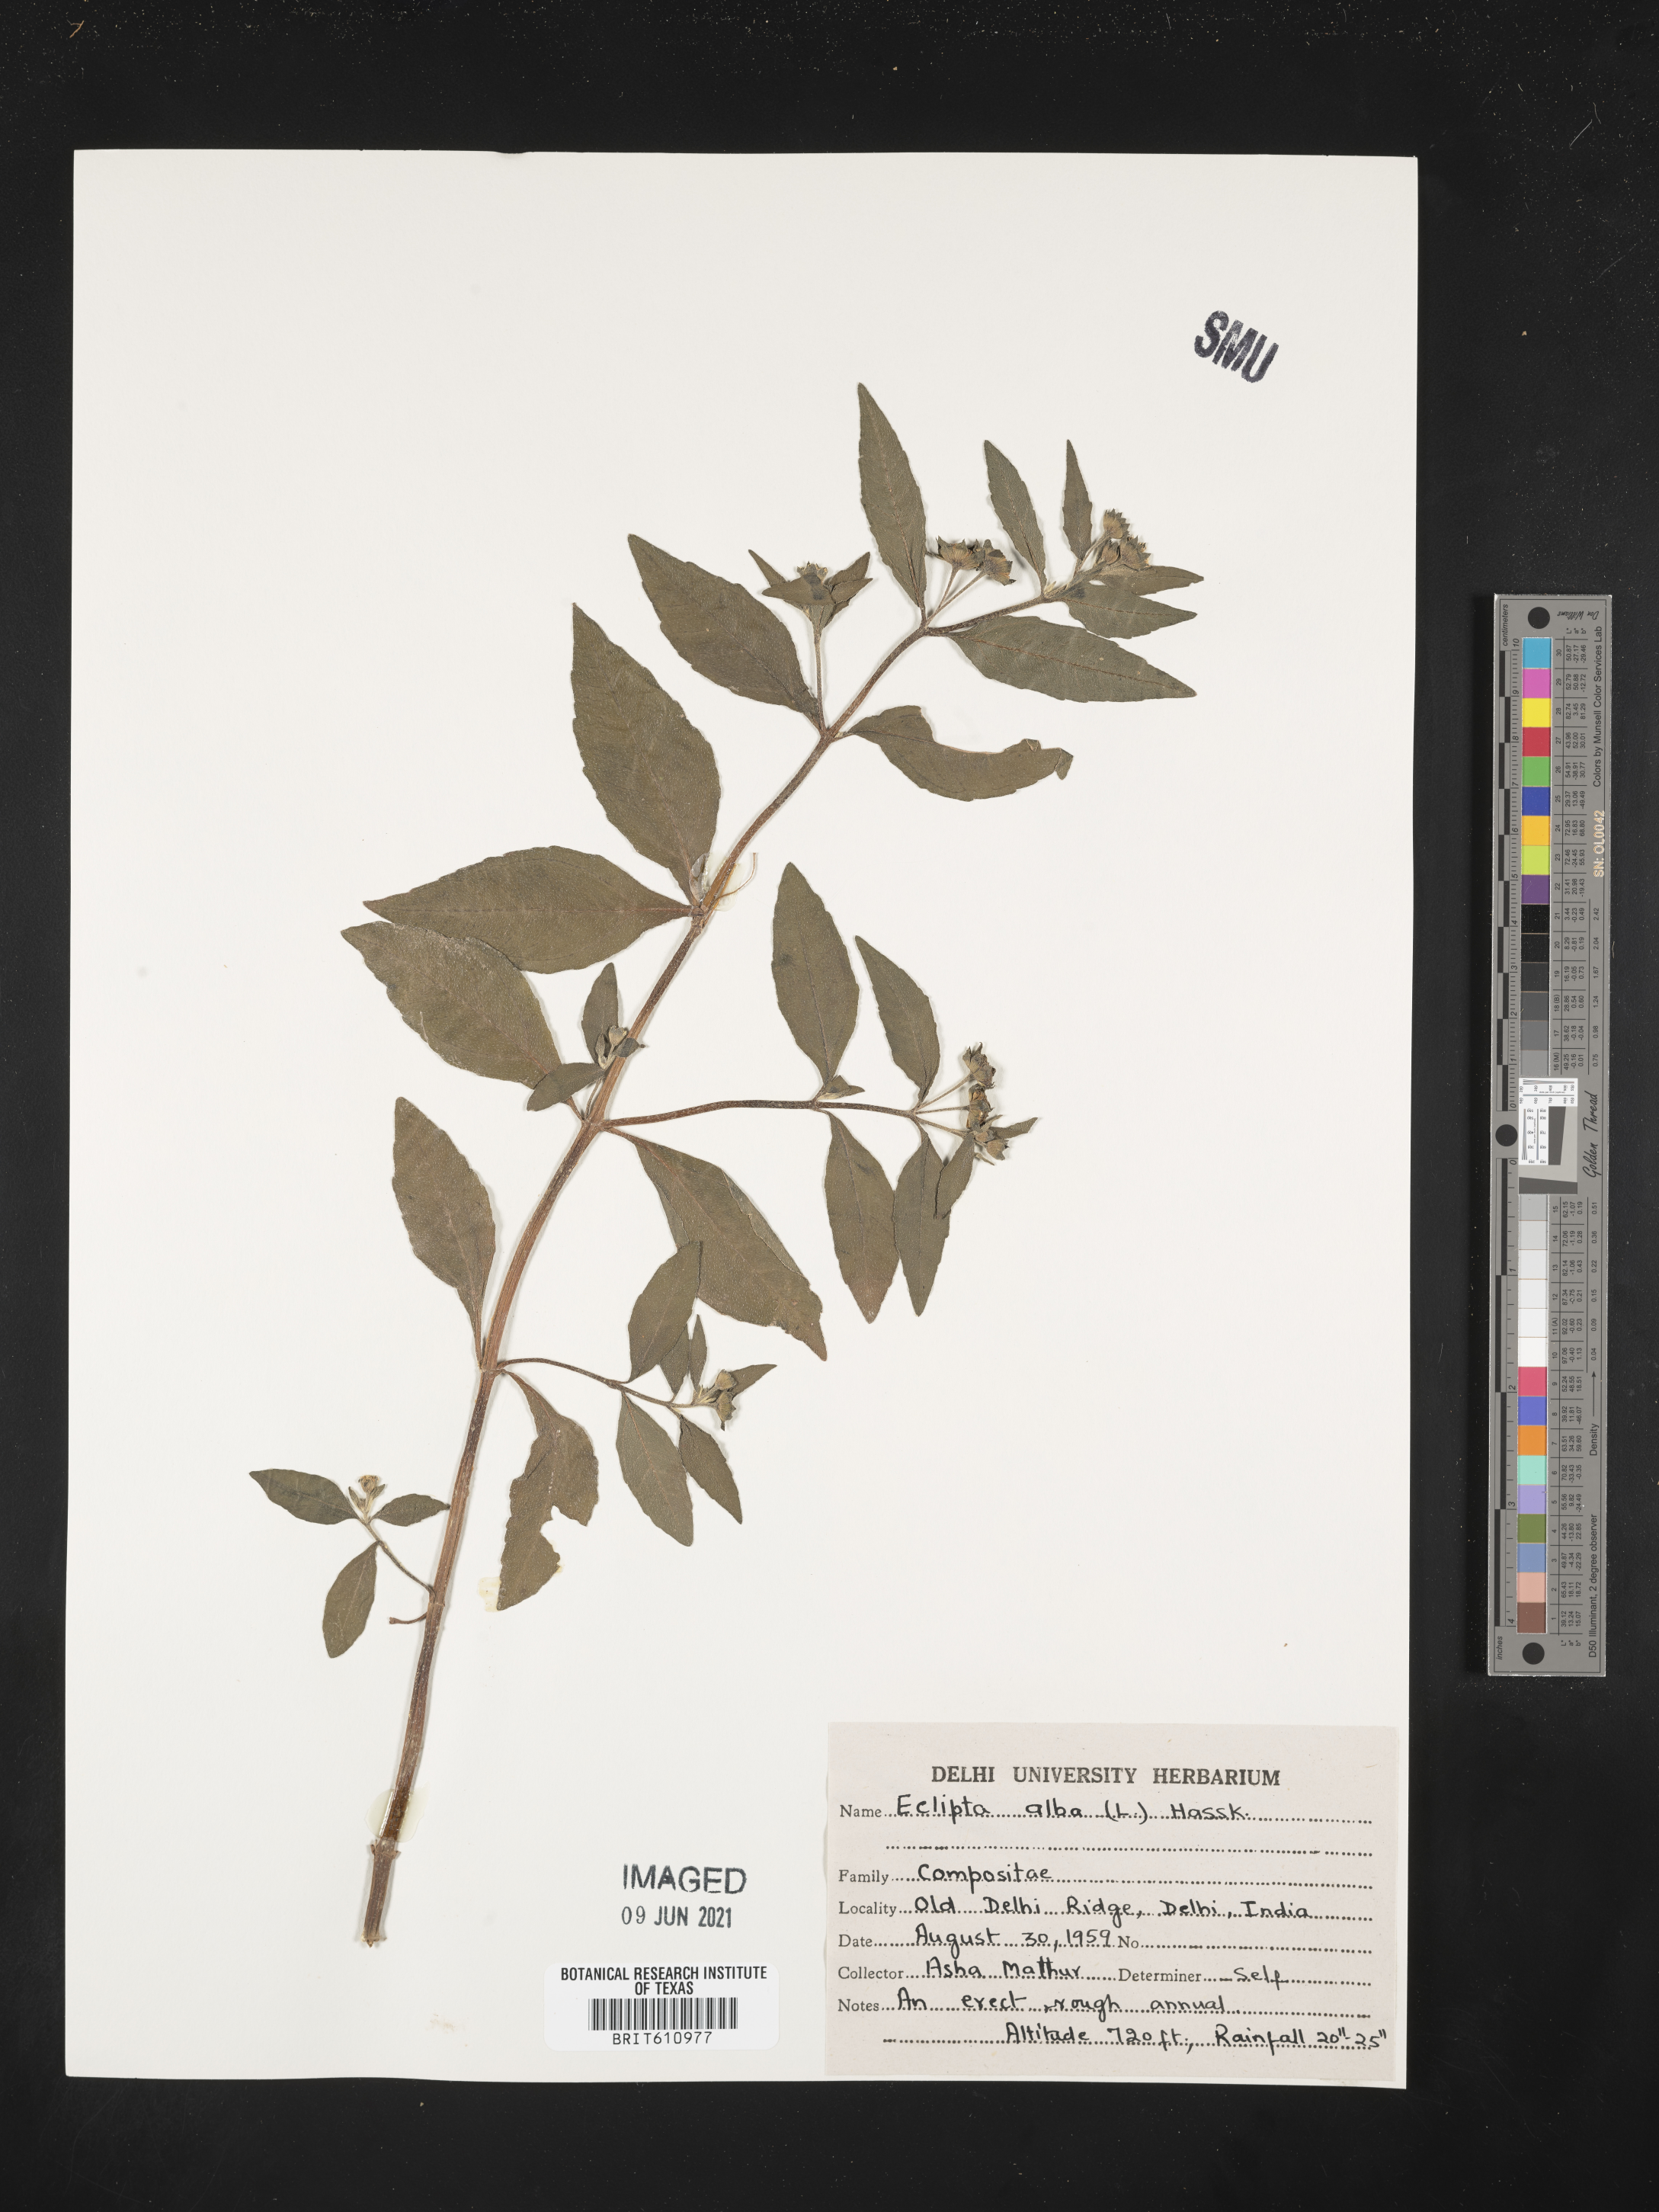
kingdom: Plantae
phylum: Tracheophyta
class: Magnoliopsida
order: Asterales
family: Asteraceae
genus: Eclipta
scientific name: Eclipta alba
